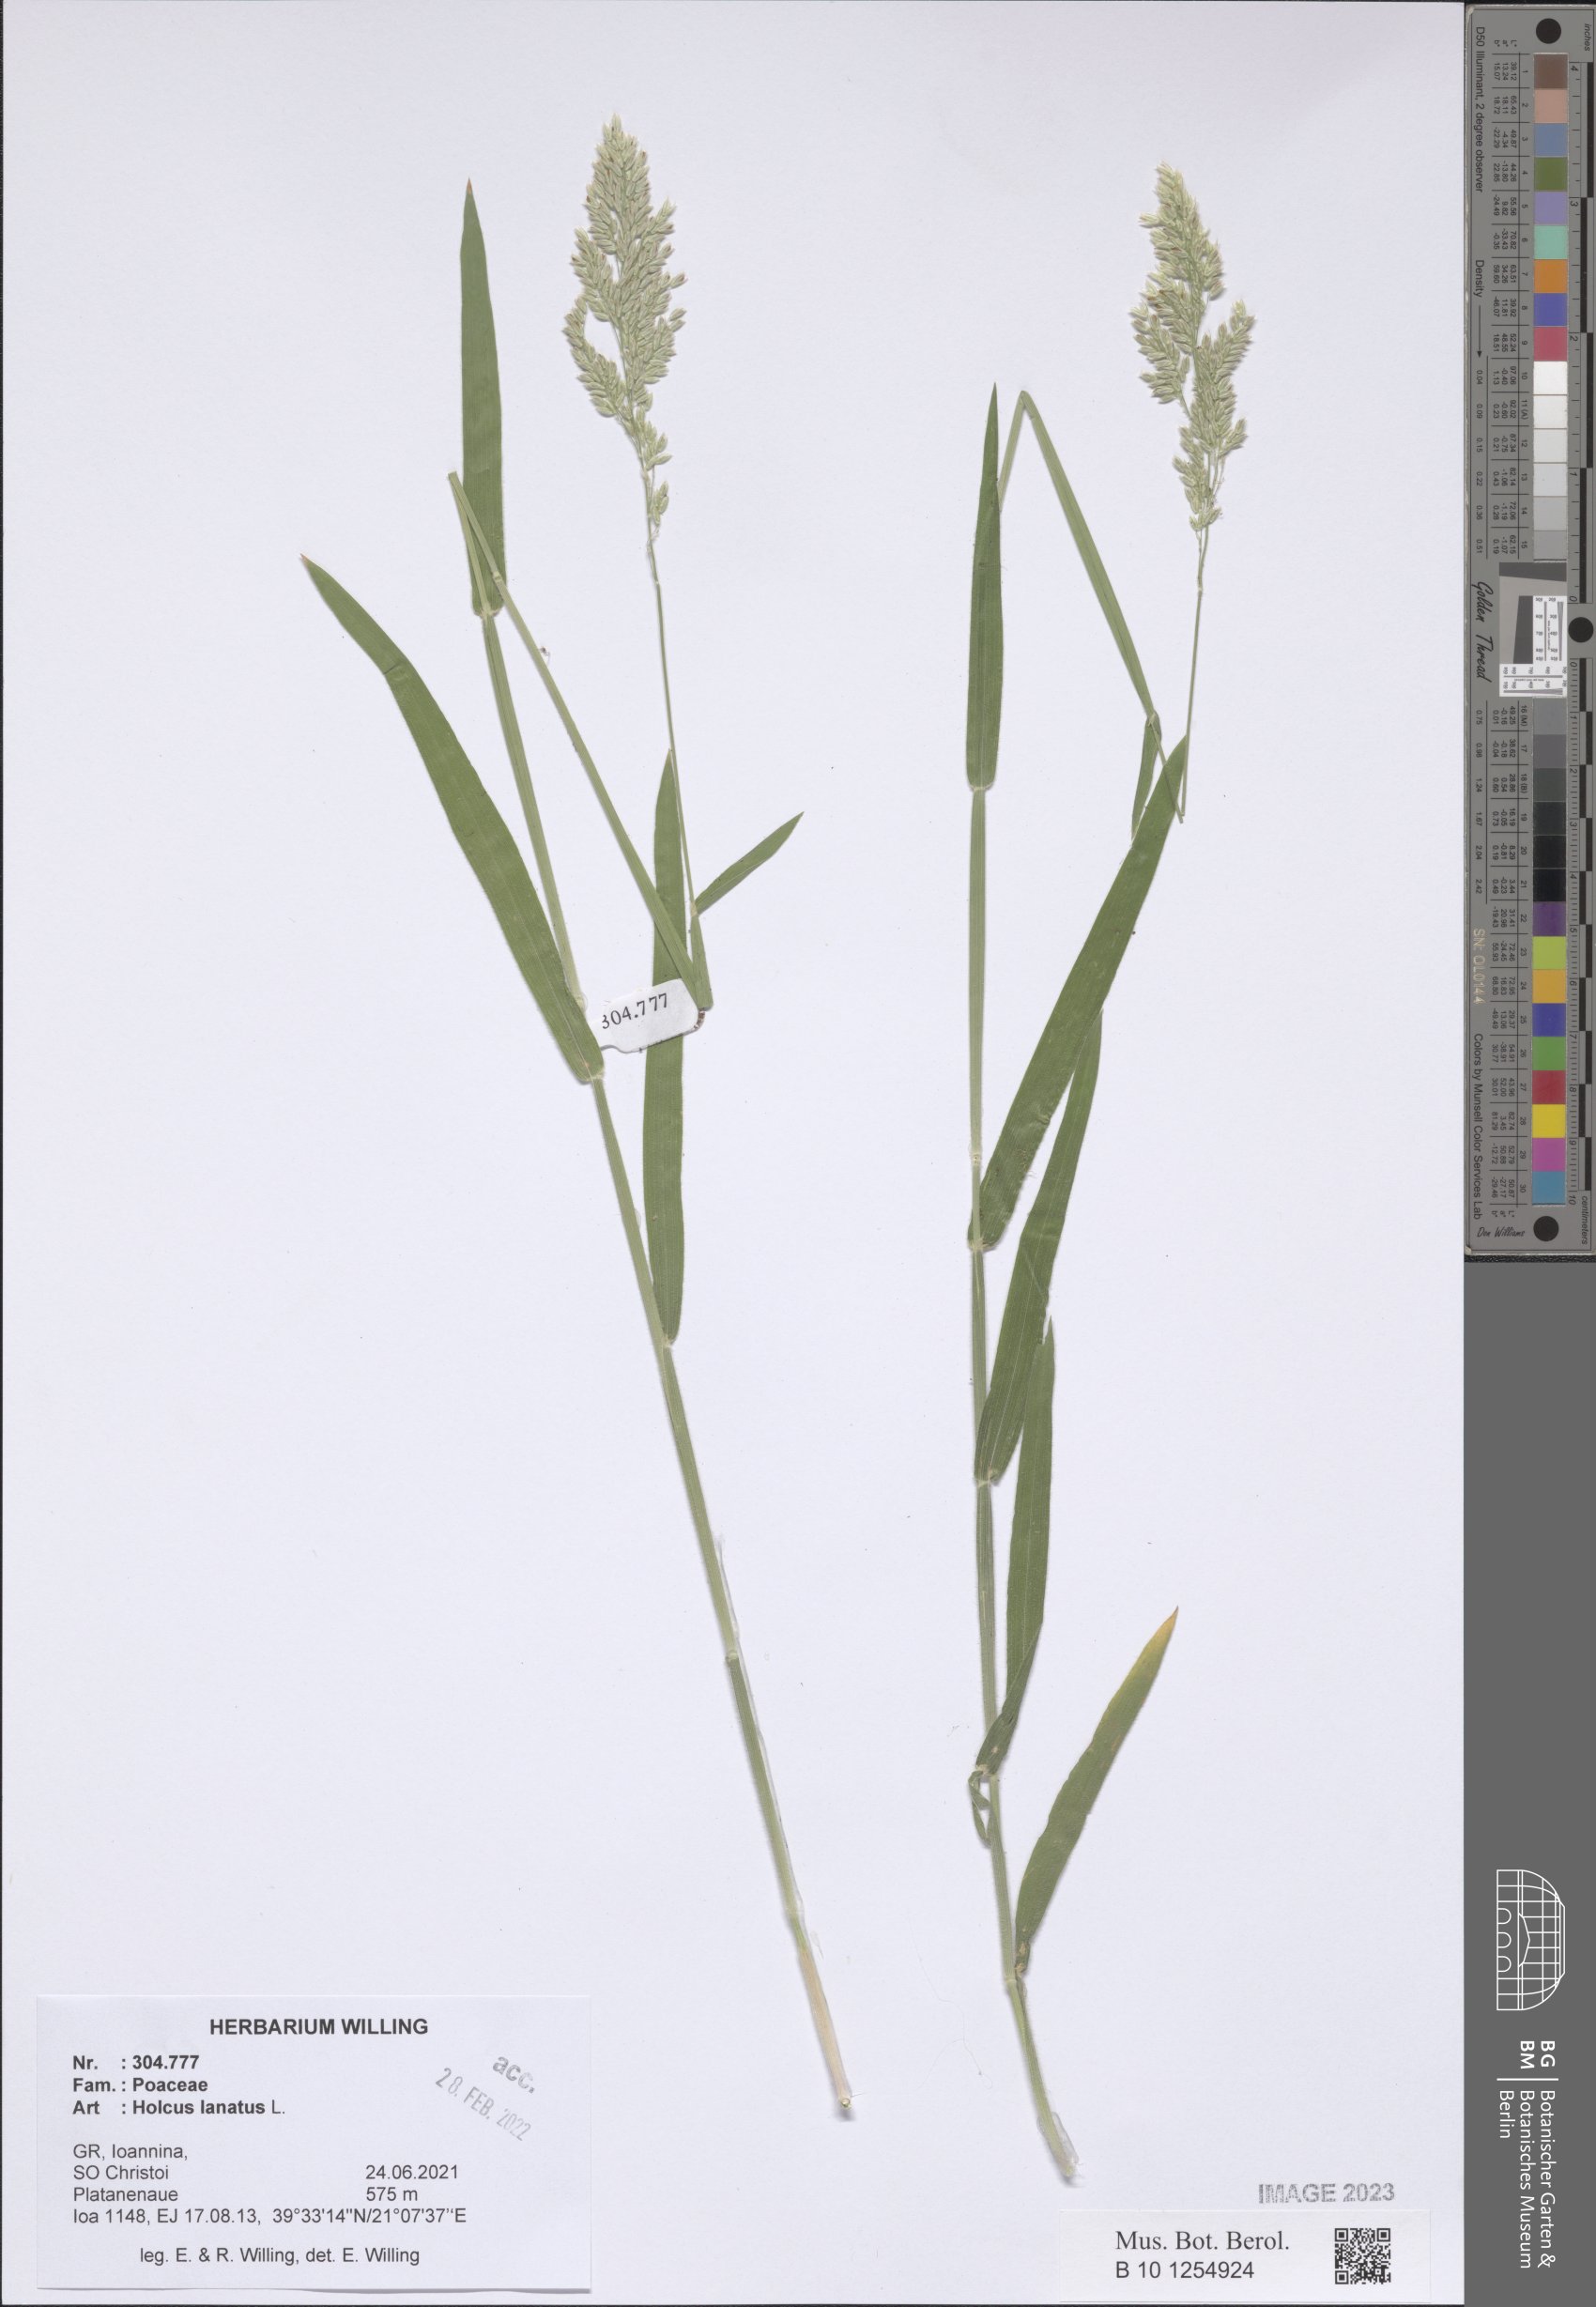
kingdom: Plantae
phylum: Tracheophyta
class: Liliopsida
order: Poales
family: Poaceae
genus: Holcus
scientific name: Holcus lanatus
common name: Yorkshire-fog
